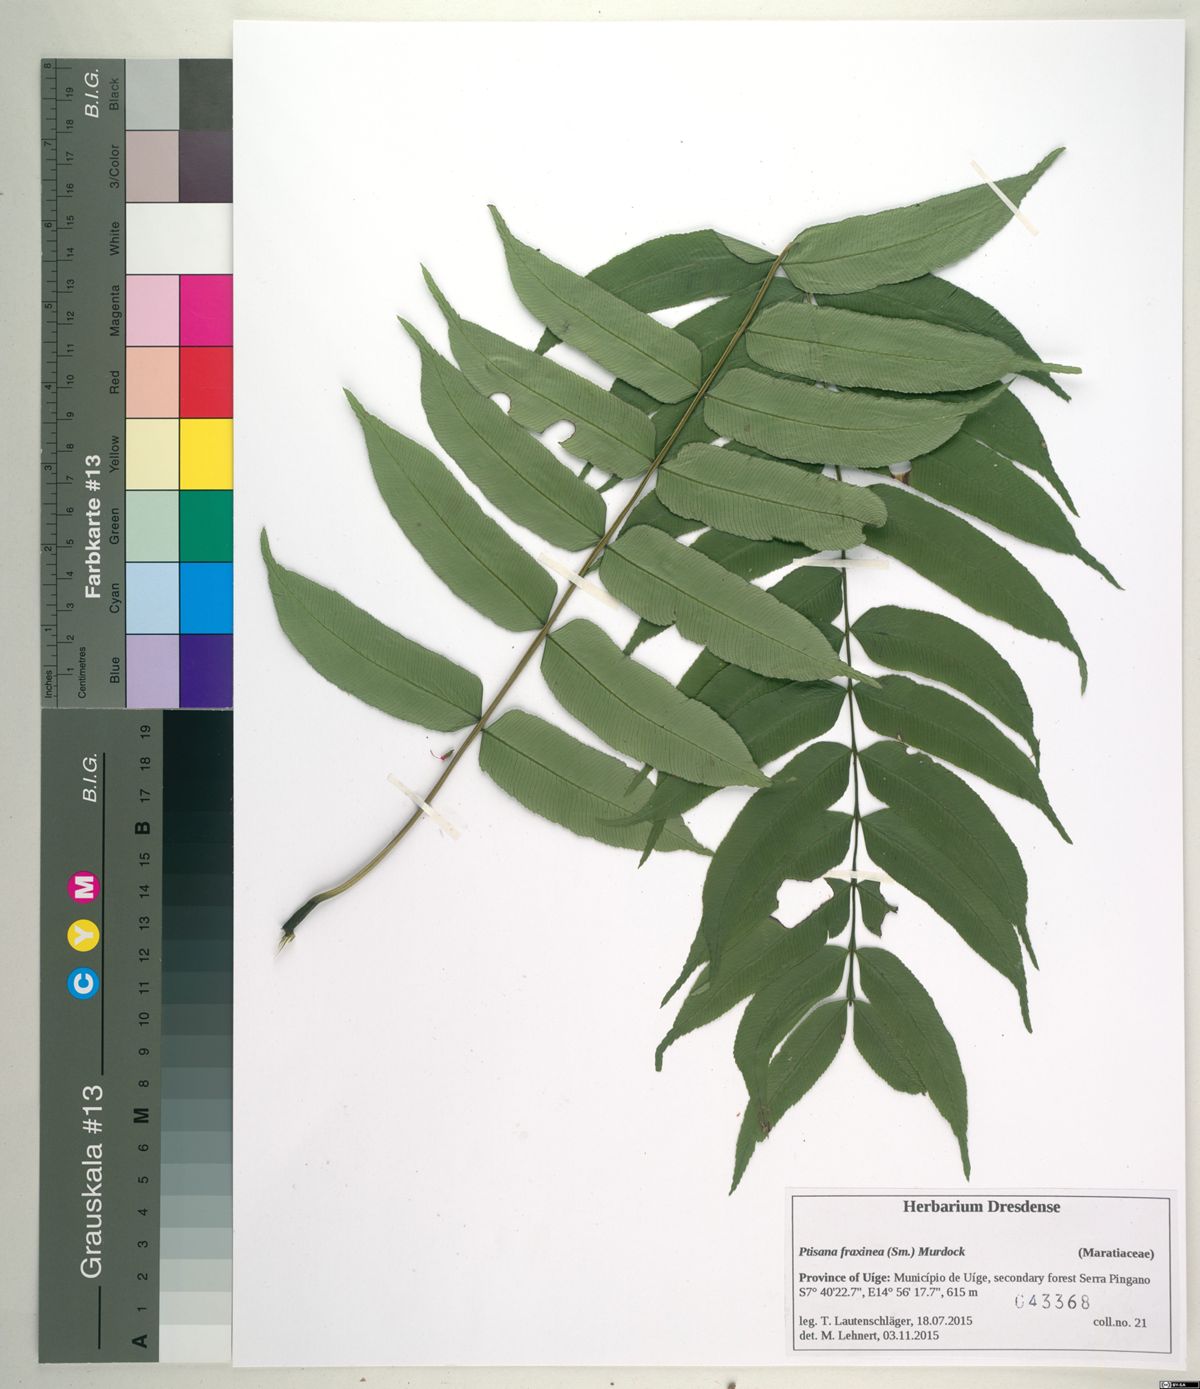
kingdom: Plantae
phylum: Tracheophyta
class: Polypodiopsida
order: Marattiales
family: Marattiaceae
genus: Ptisana
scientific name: Ptisana salicifolia
